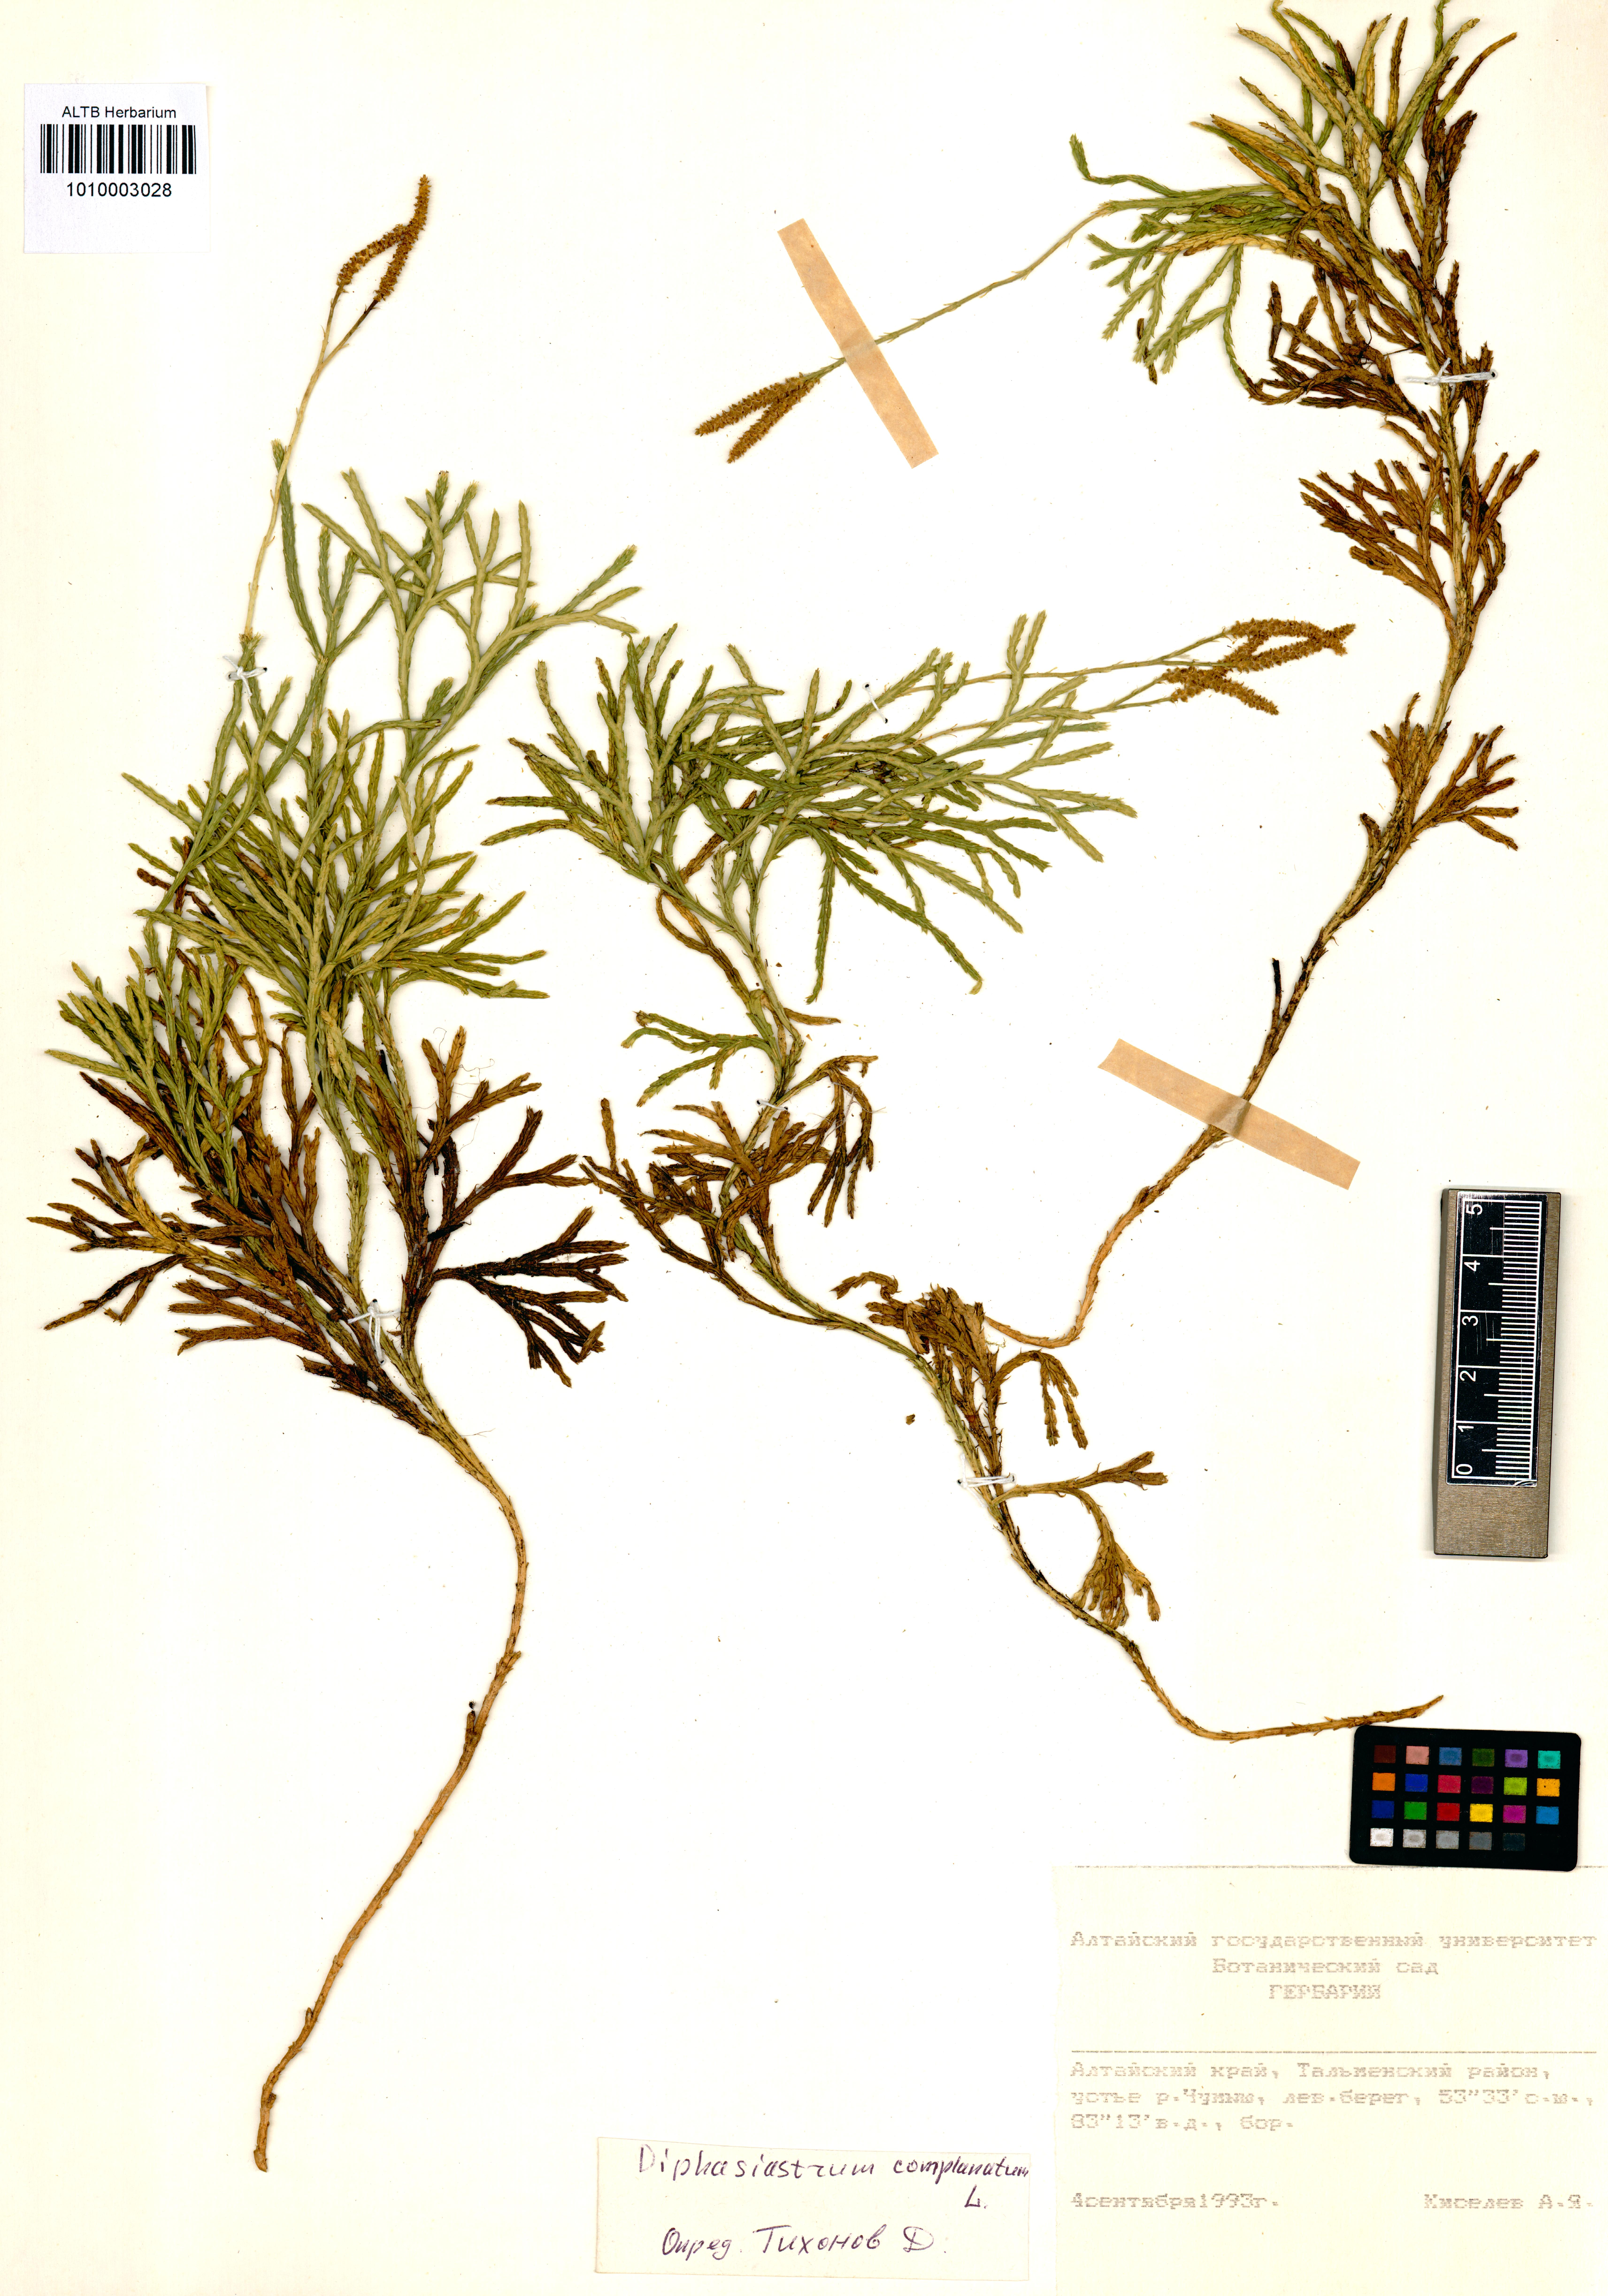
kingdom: Plantae
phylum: Tracheophyta
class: Lycopodiopsida
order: Lycopodiales
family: Lycopodiaceae
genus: Diphasiastrum
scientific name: Diphasiastrum complanatum
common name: Northern running-pine
